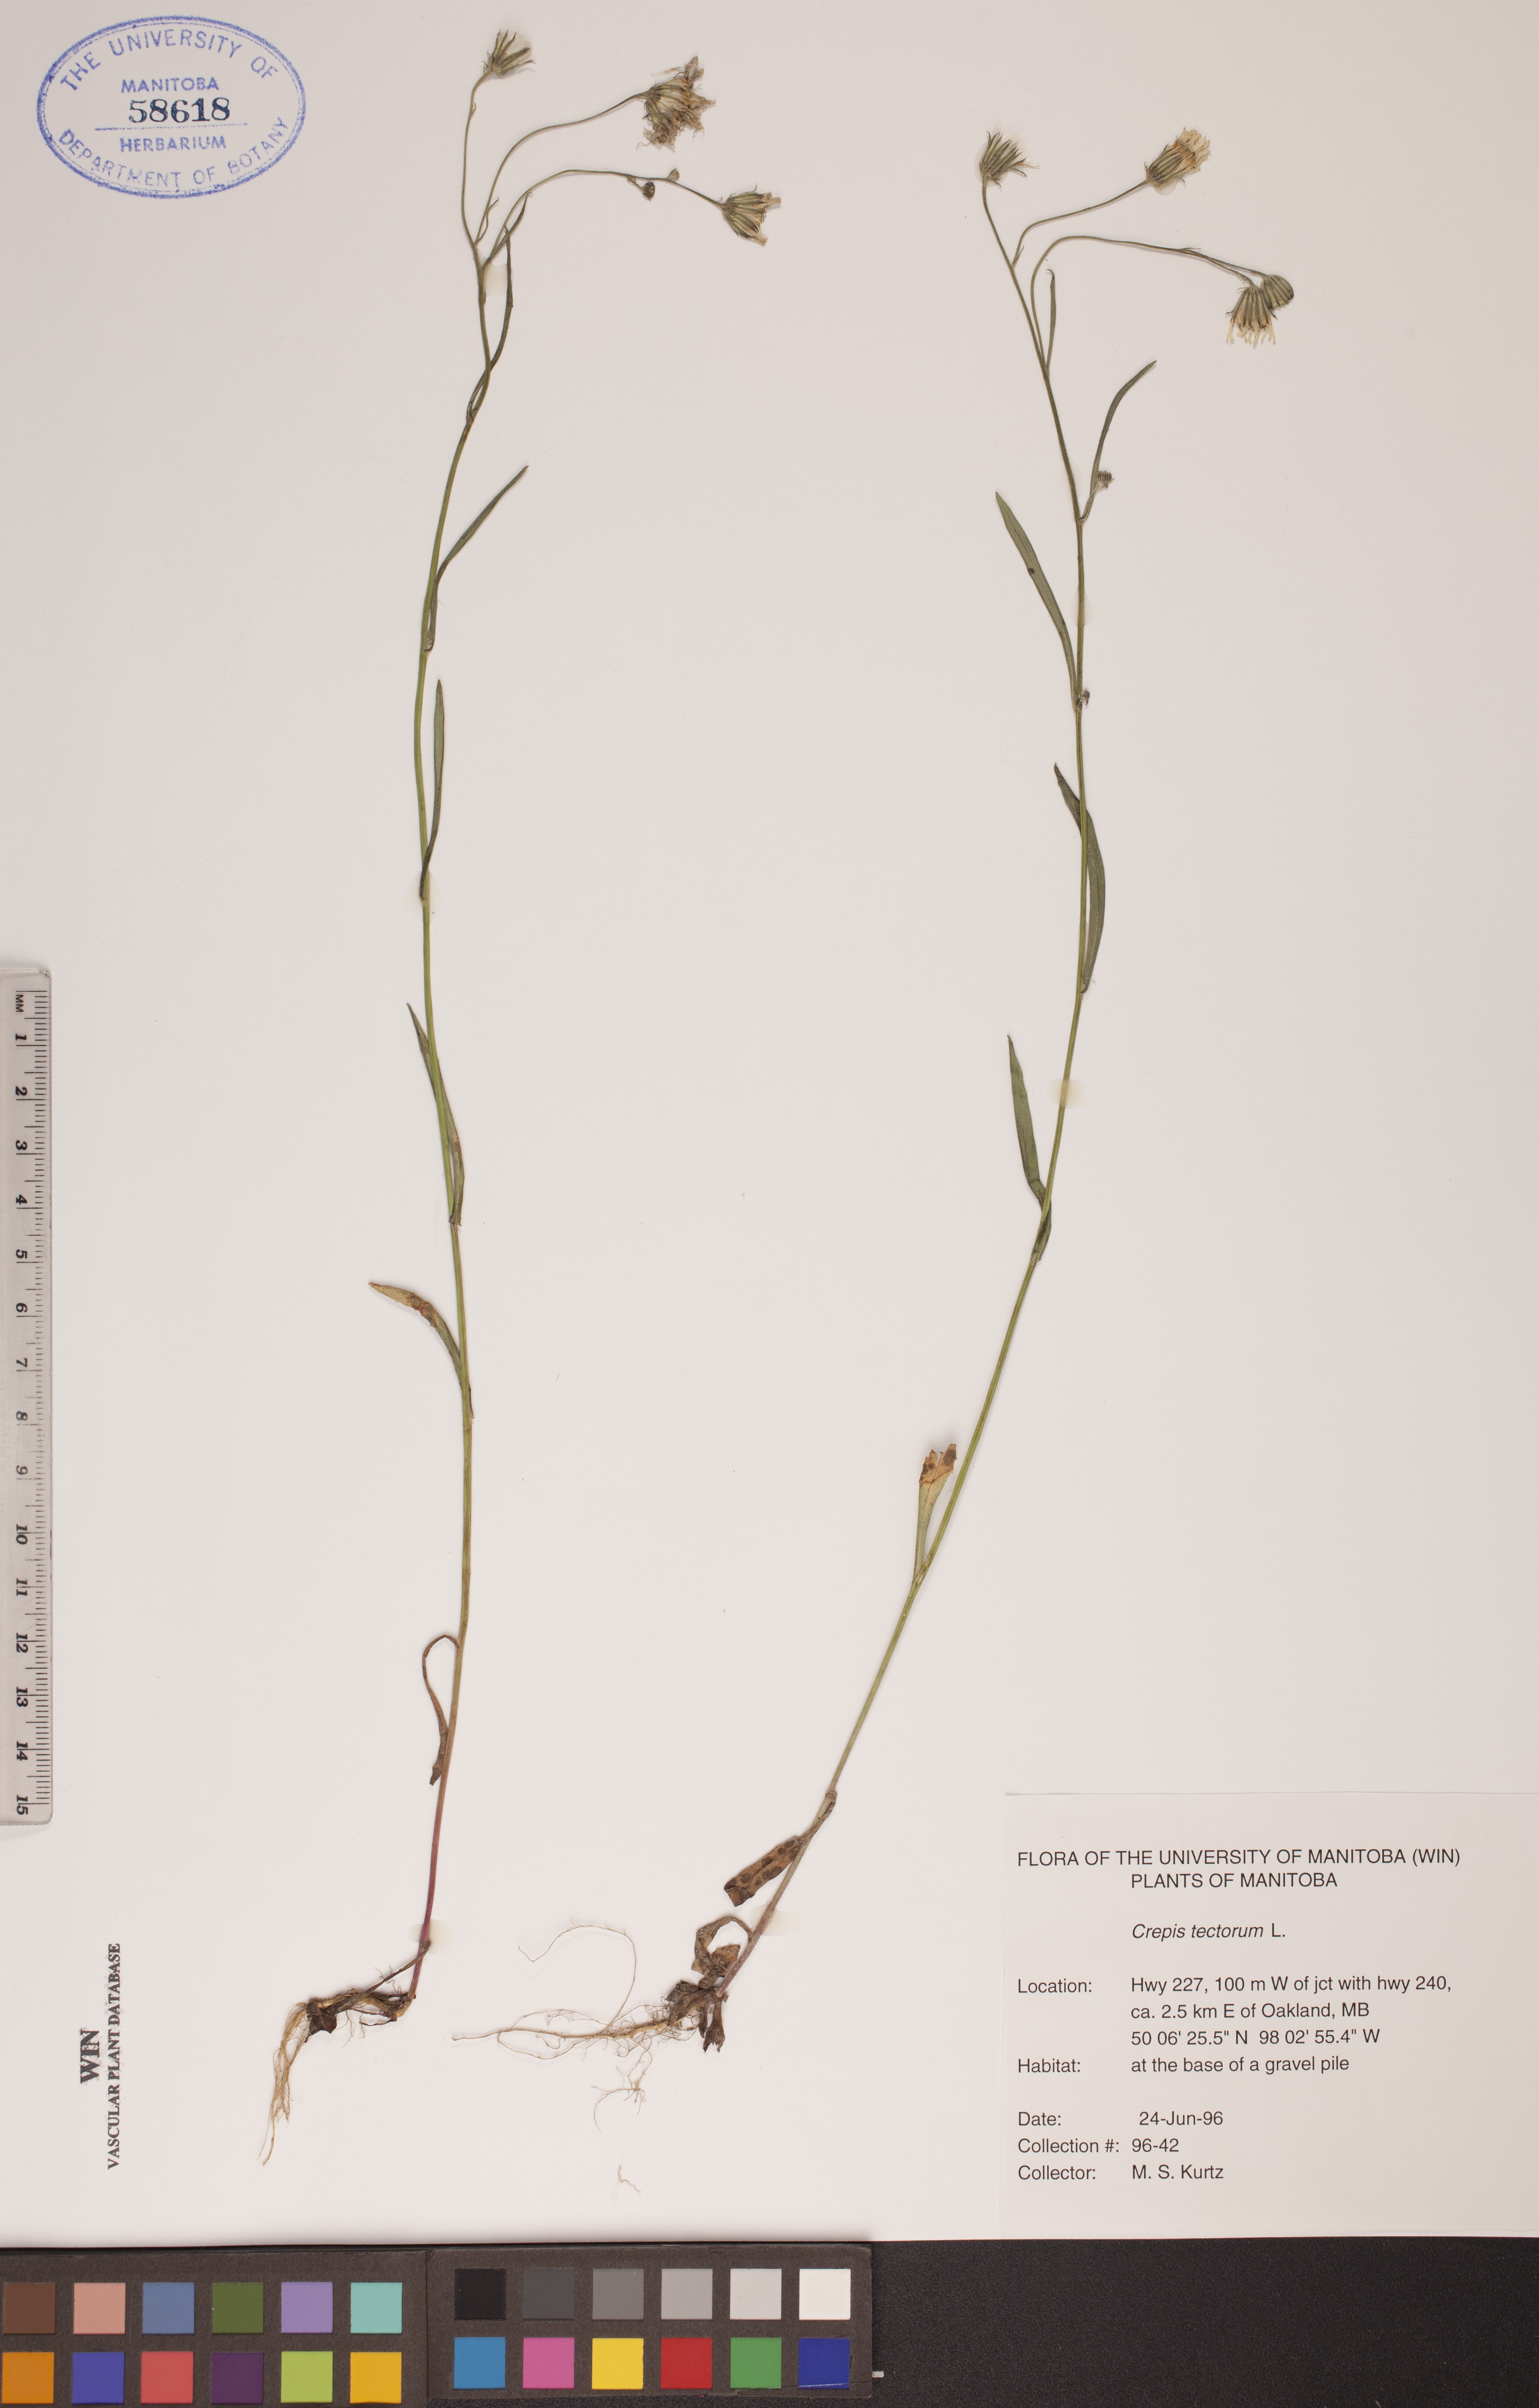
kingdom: Plantae
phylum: Tracheophyta
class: Magnoliopsida
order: Asterales
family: Asteraceae
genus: Crepis
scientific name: Crepis tectorum
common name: Narrow-leaved hawk's-beard
